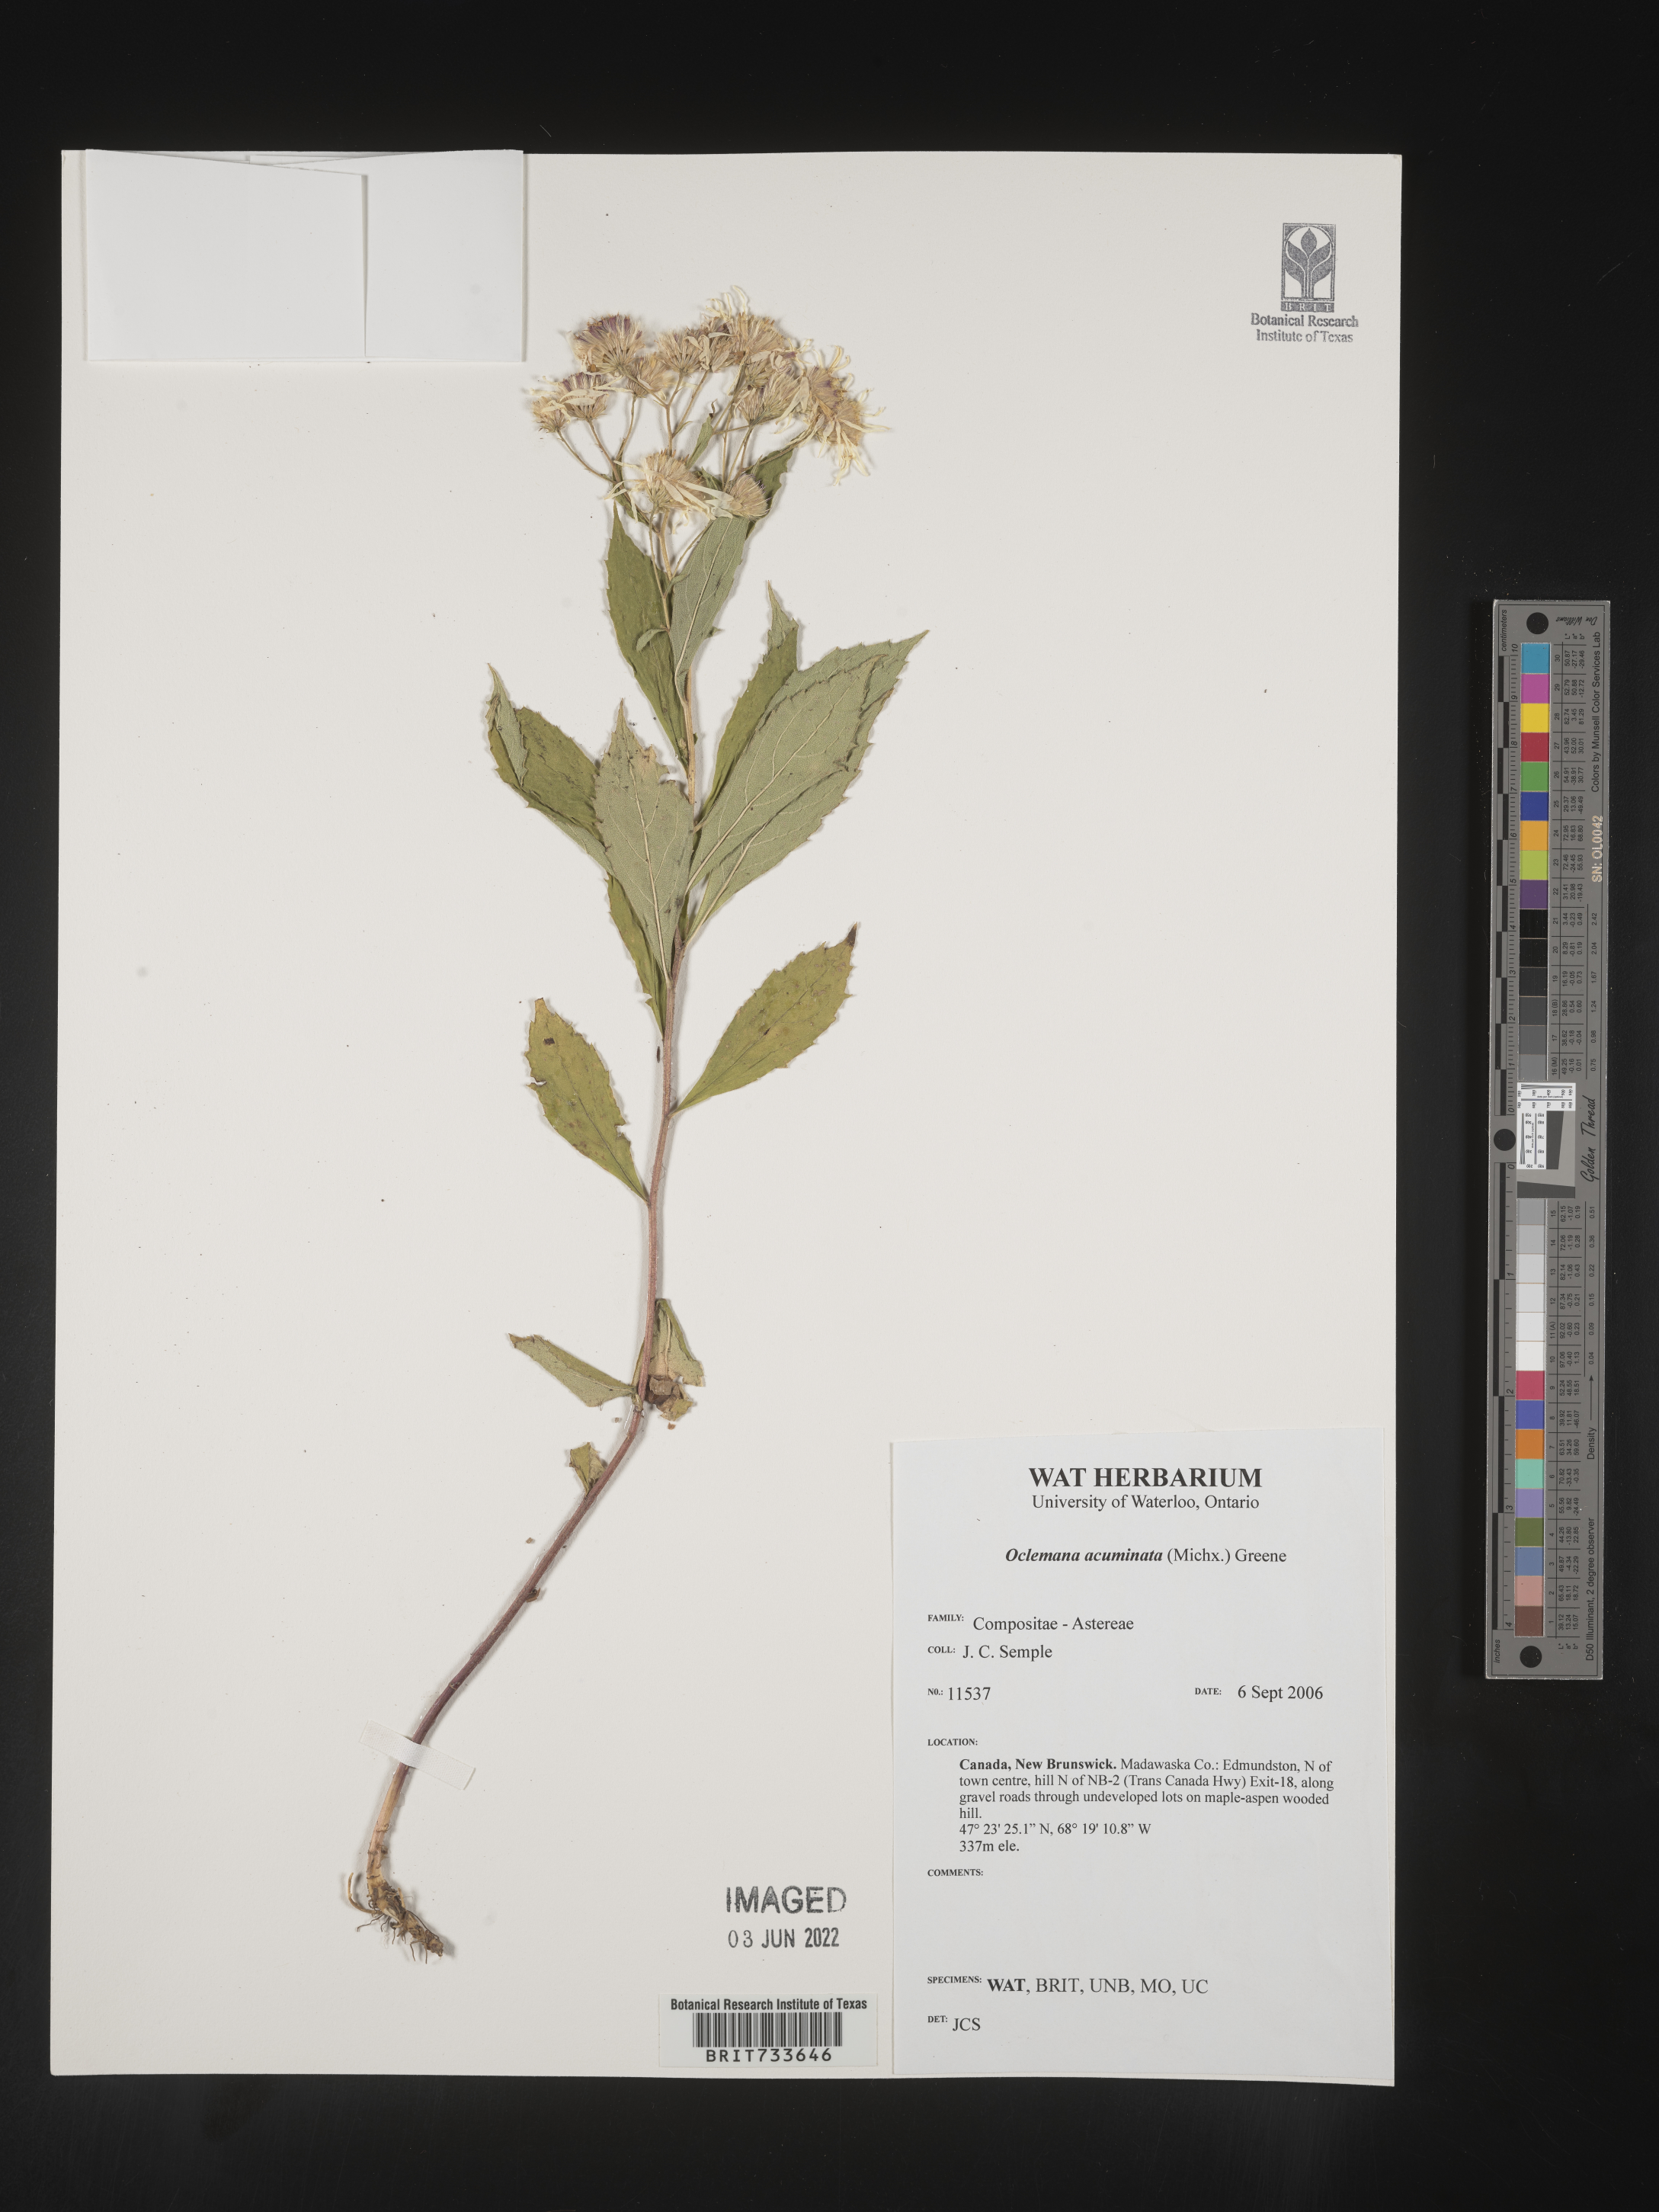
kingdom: Plantae
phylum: Tracheophyta
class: Magnoliopsida
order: Asterales
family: Asteraceae
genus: Oclemena
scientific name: Oclemena acuminata
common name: Mountain aster
